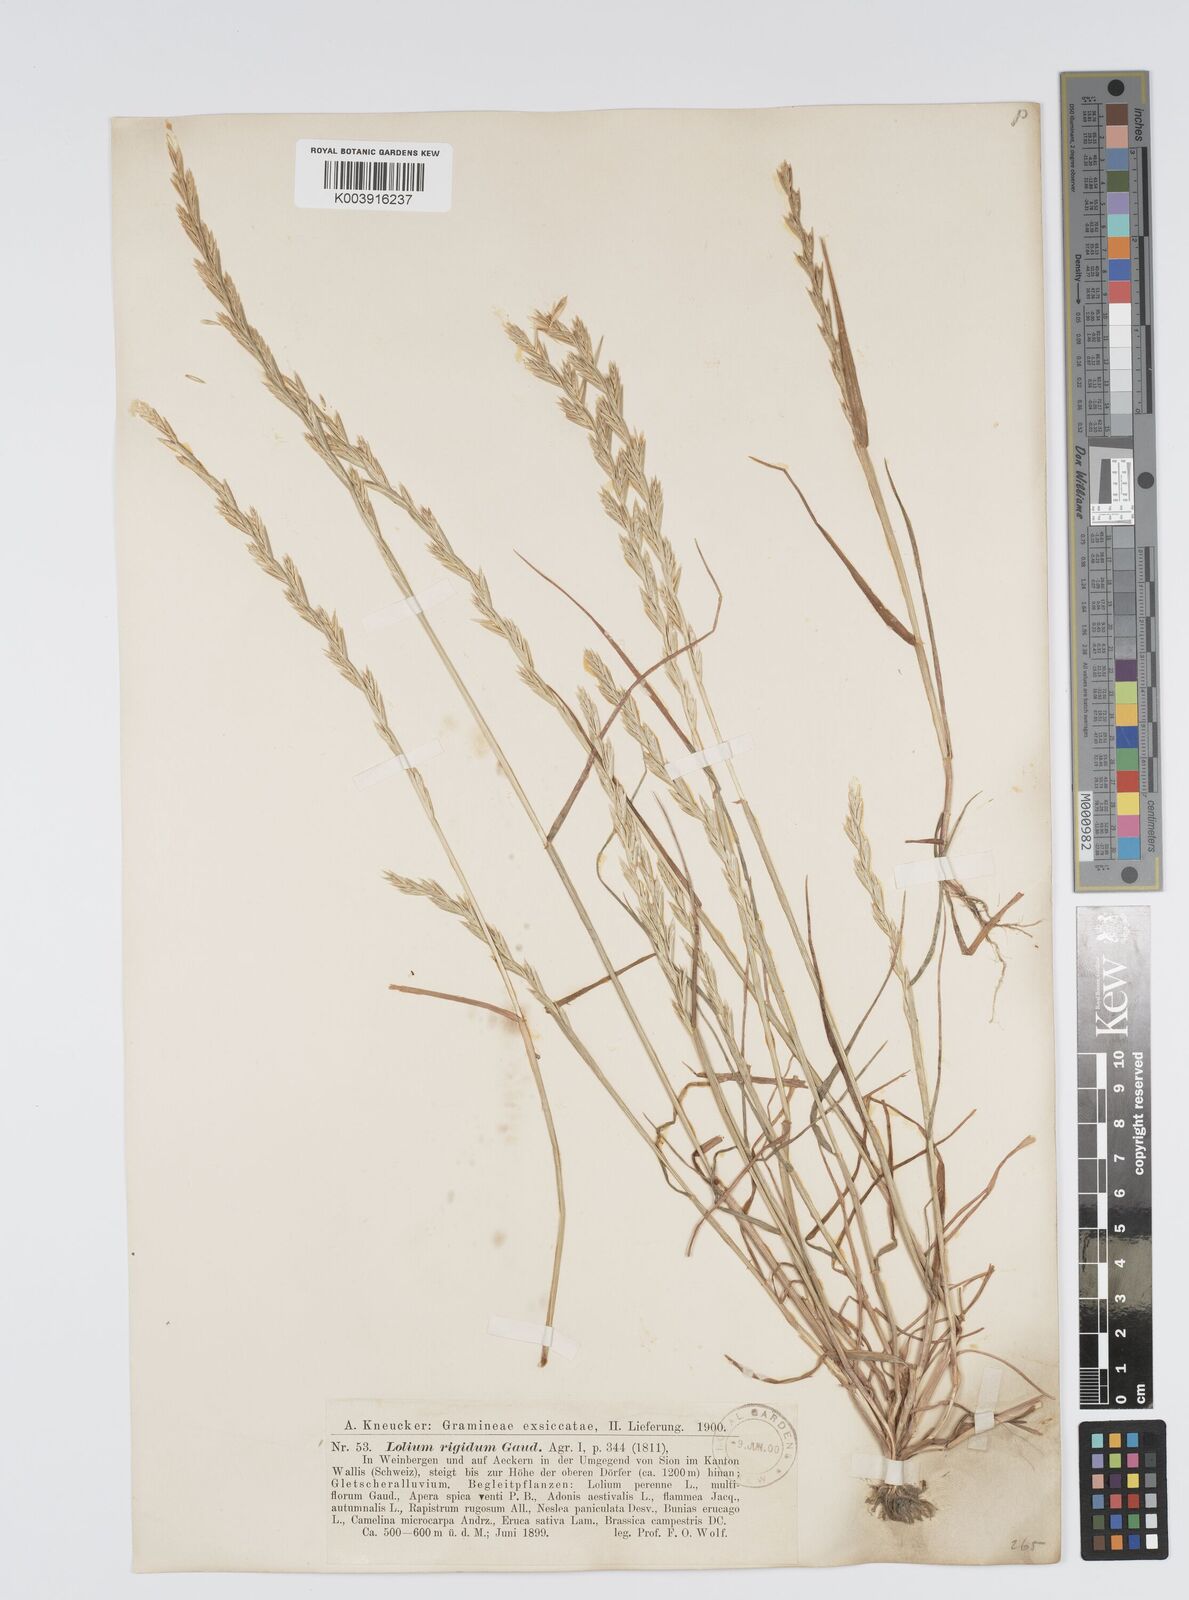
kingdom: Plantae
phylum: Tracheophyta
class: Liliopsida
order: Poales
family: Poaceae
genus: Lolium
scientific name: Lolium rigidum
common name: Wimmera ryegrass
